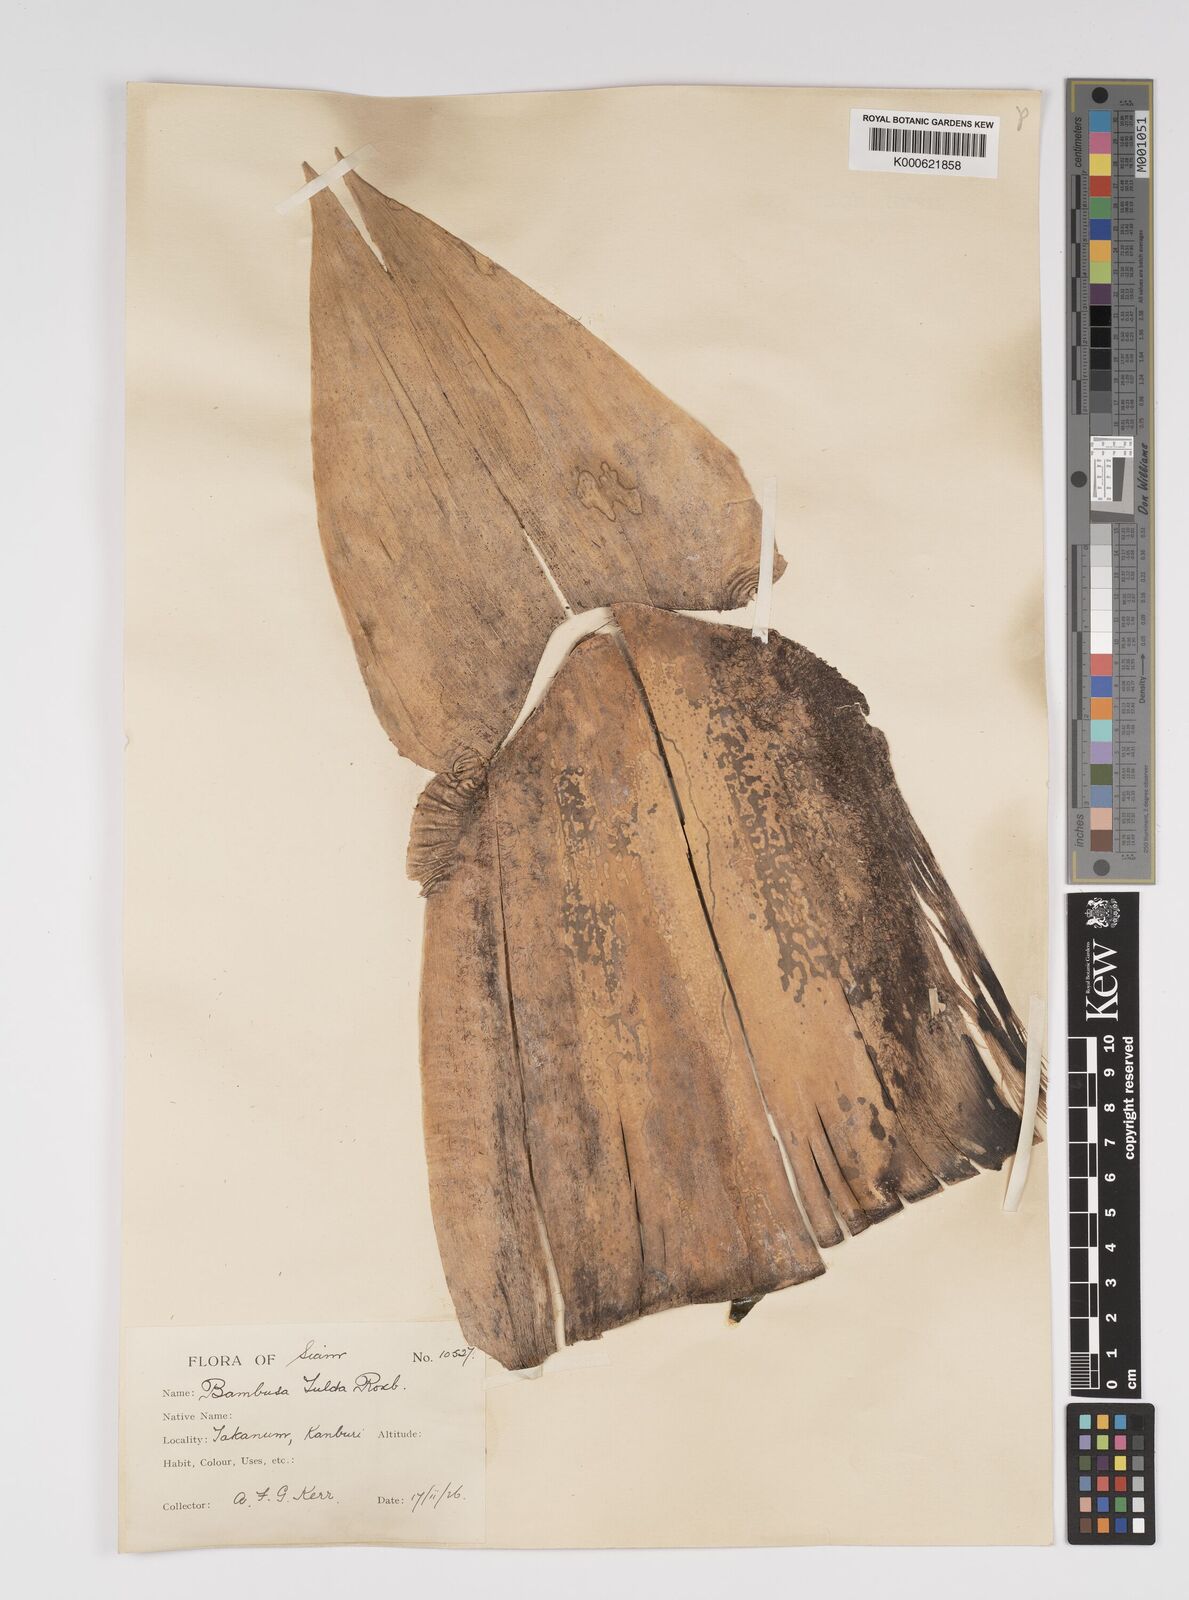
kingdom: Plantae
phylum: Tracheophyta
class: Liliopsida
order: Poales
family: Poaceae
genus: Bambusa
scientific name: Bambusa tulda
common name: Bengal bamboo
